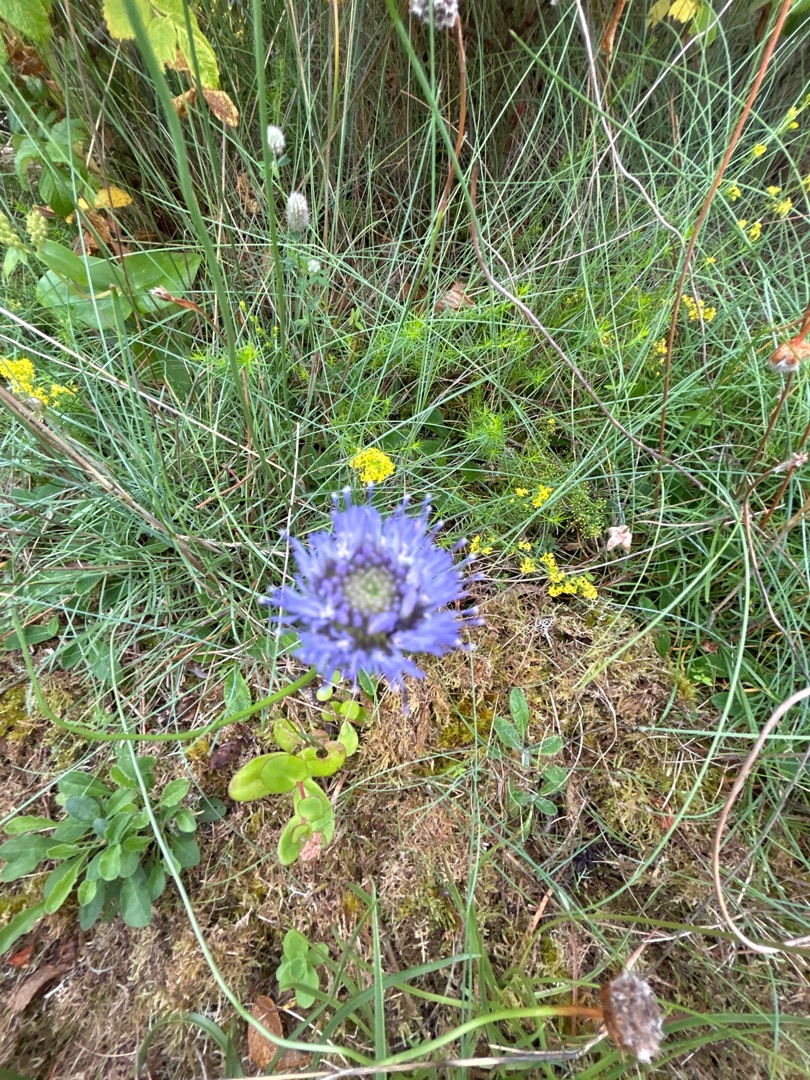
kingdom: Plantae
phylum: Tracheophyta
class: Magnoliopsida
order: Asterales
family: Campanulaceae
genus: Jasione
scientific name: Jasione montana
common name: Blåmunke
